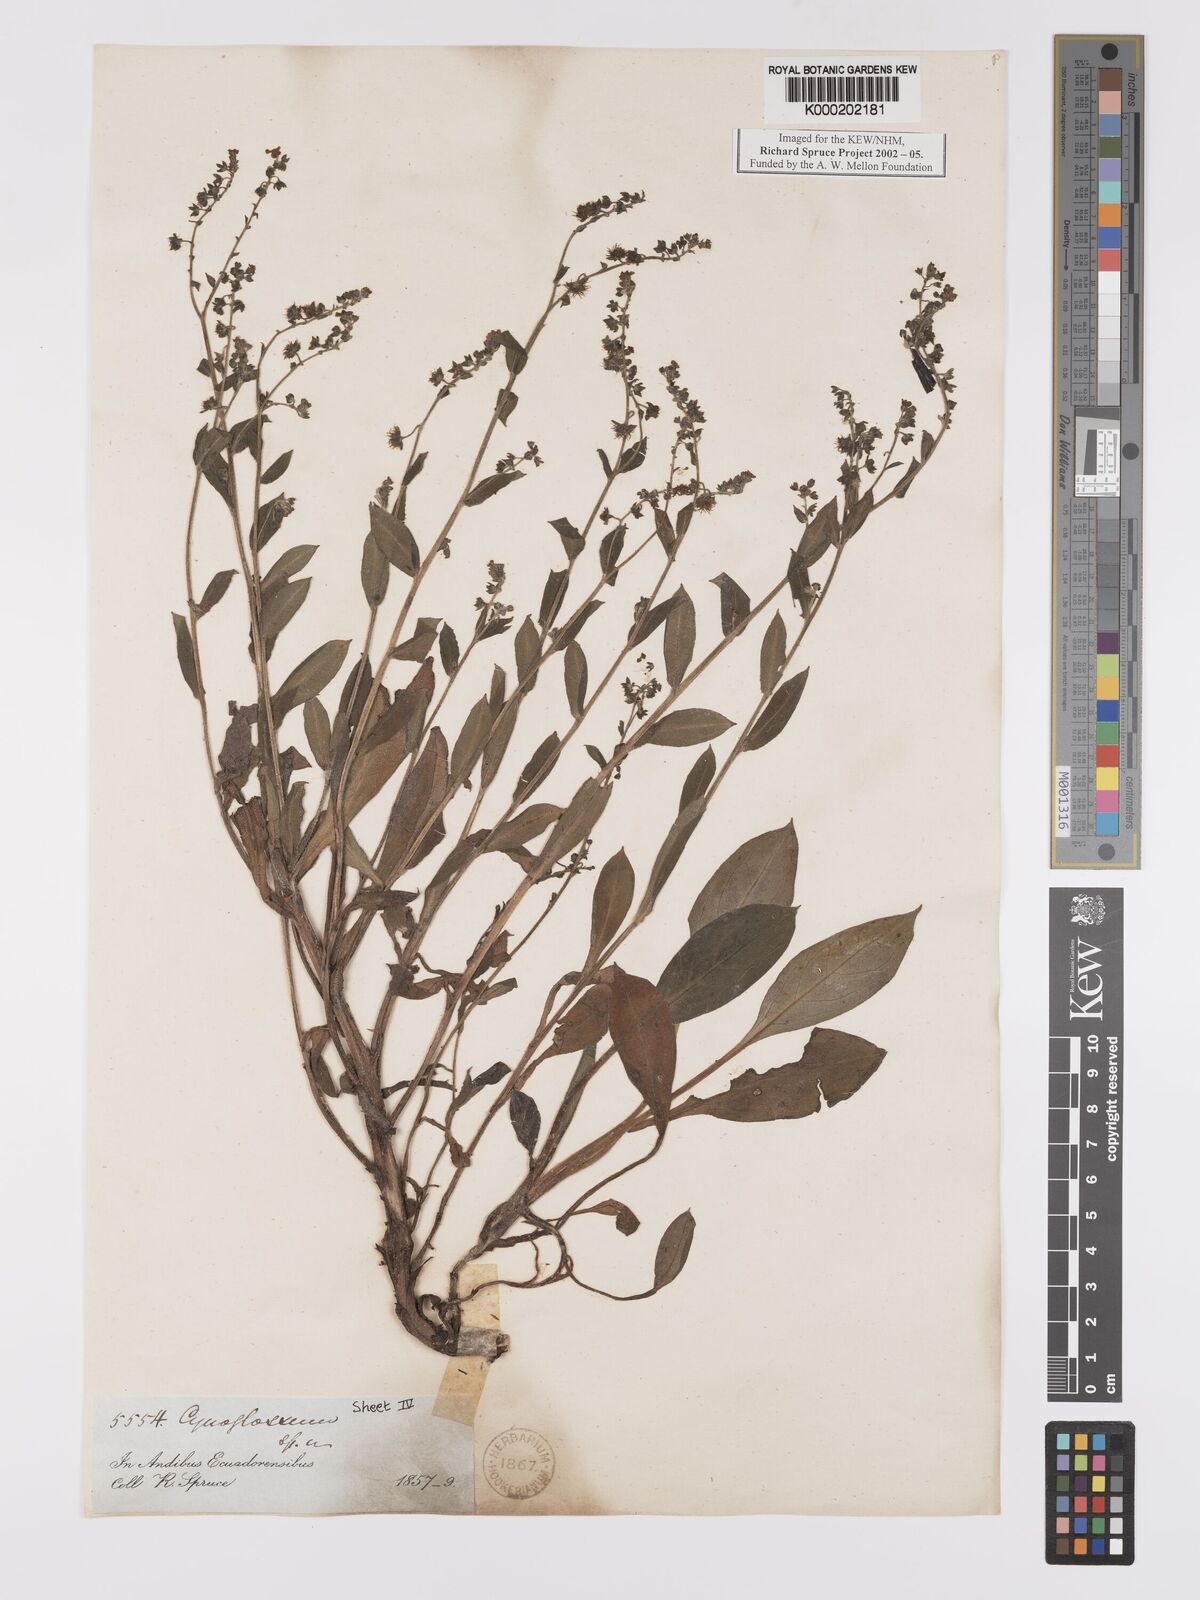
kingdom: Plantae
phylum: Tracheophyta
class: Magnoliopsida
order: Boraginales
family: Boraginaceae
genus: Hackelia
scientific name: Hackelia revoluta
